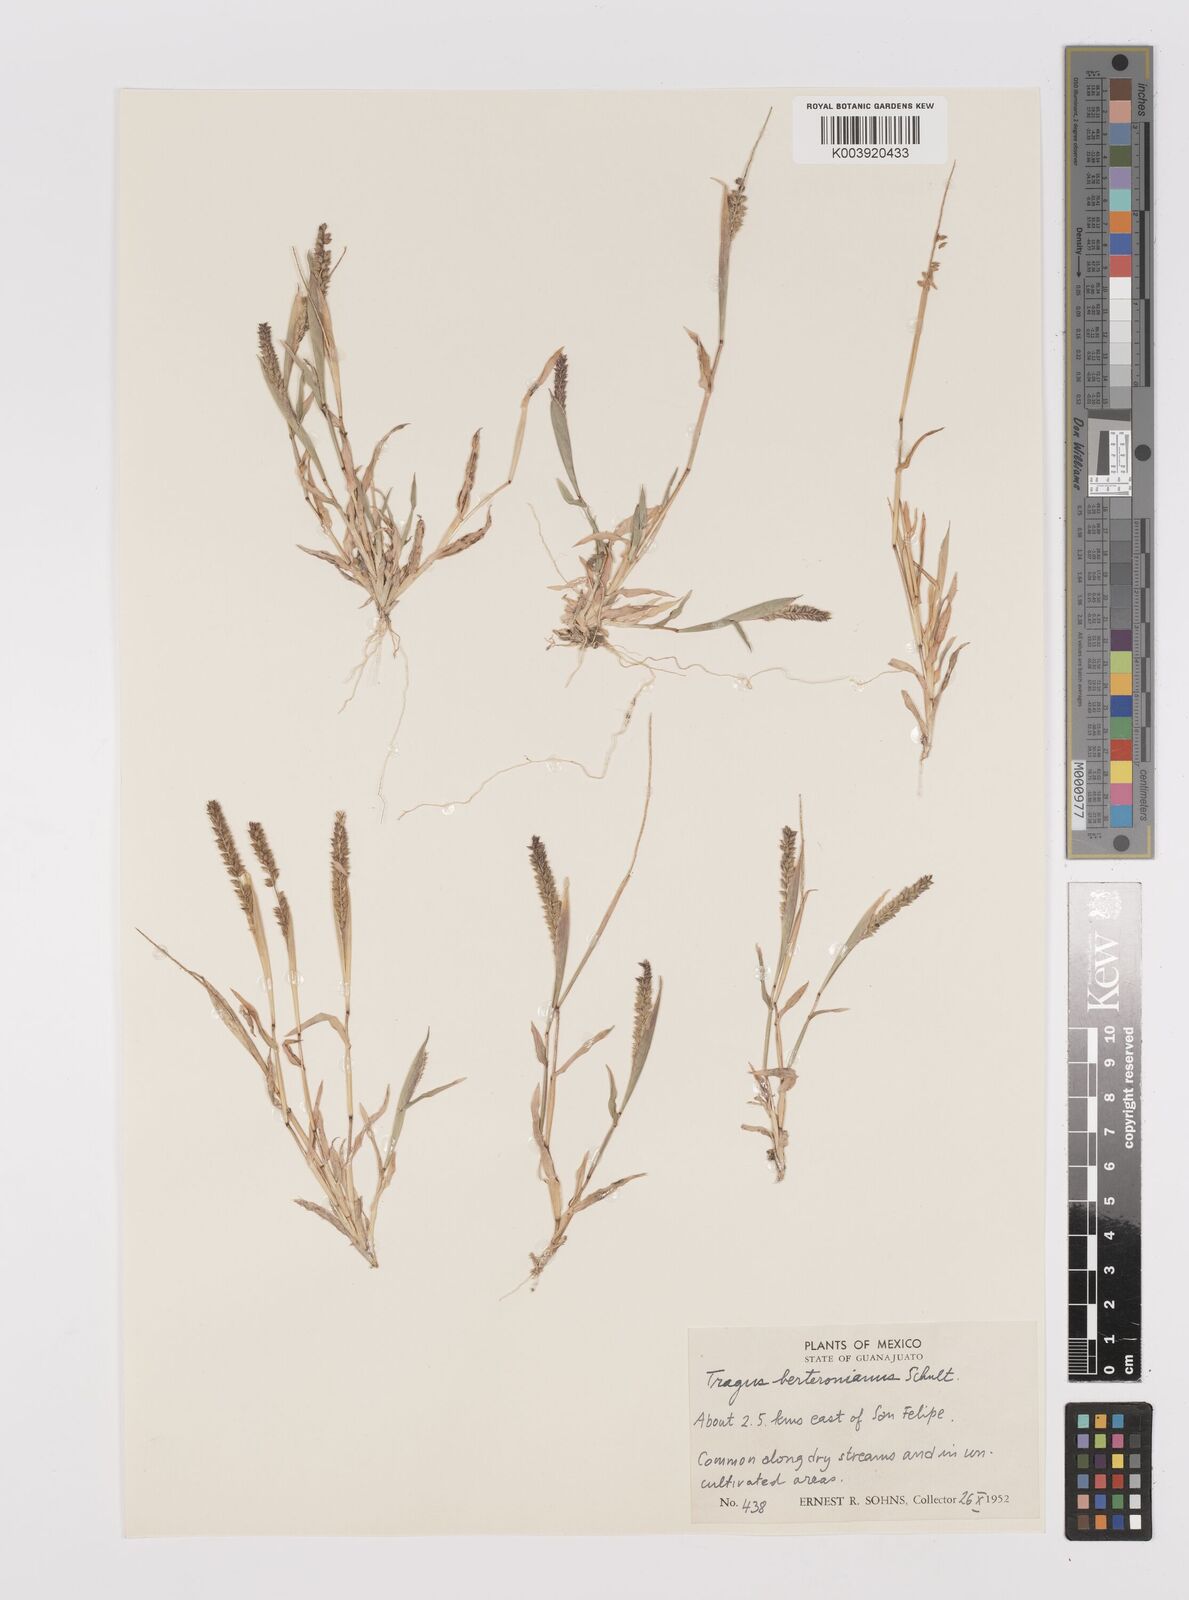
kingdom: Plantae
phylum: Tracheophyta
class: Liliopsida
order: Poales
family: Poaceae
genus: Tragus
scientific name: Tragus berteronianus
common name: African bur-grass
